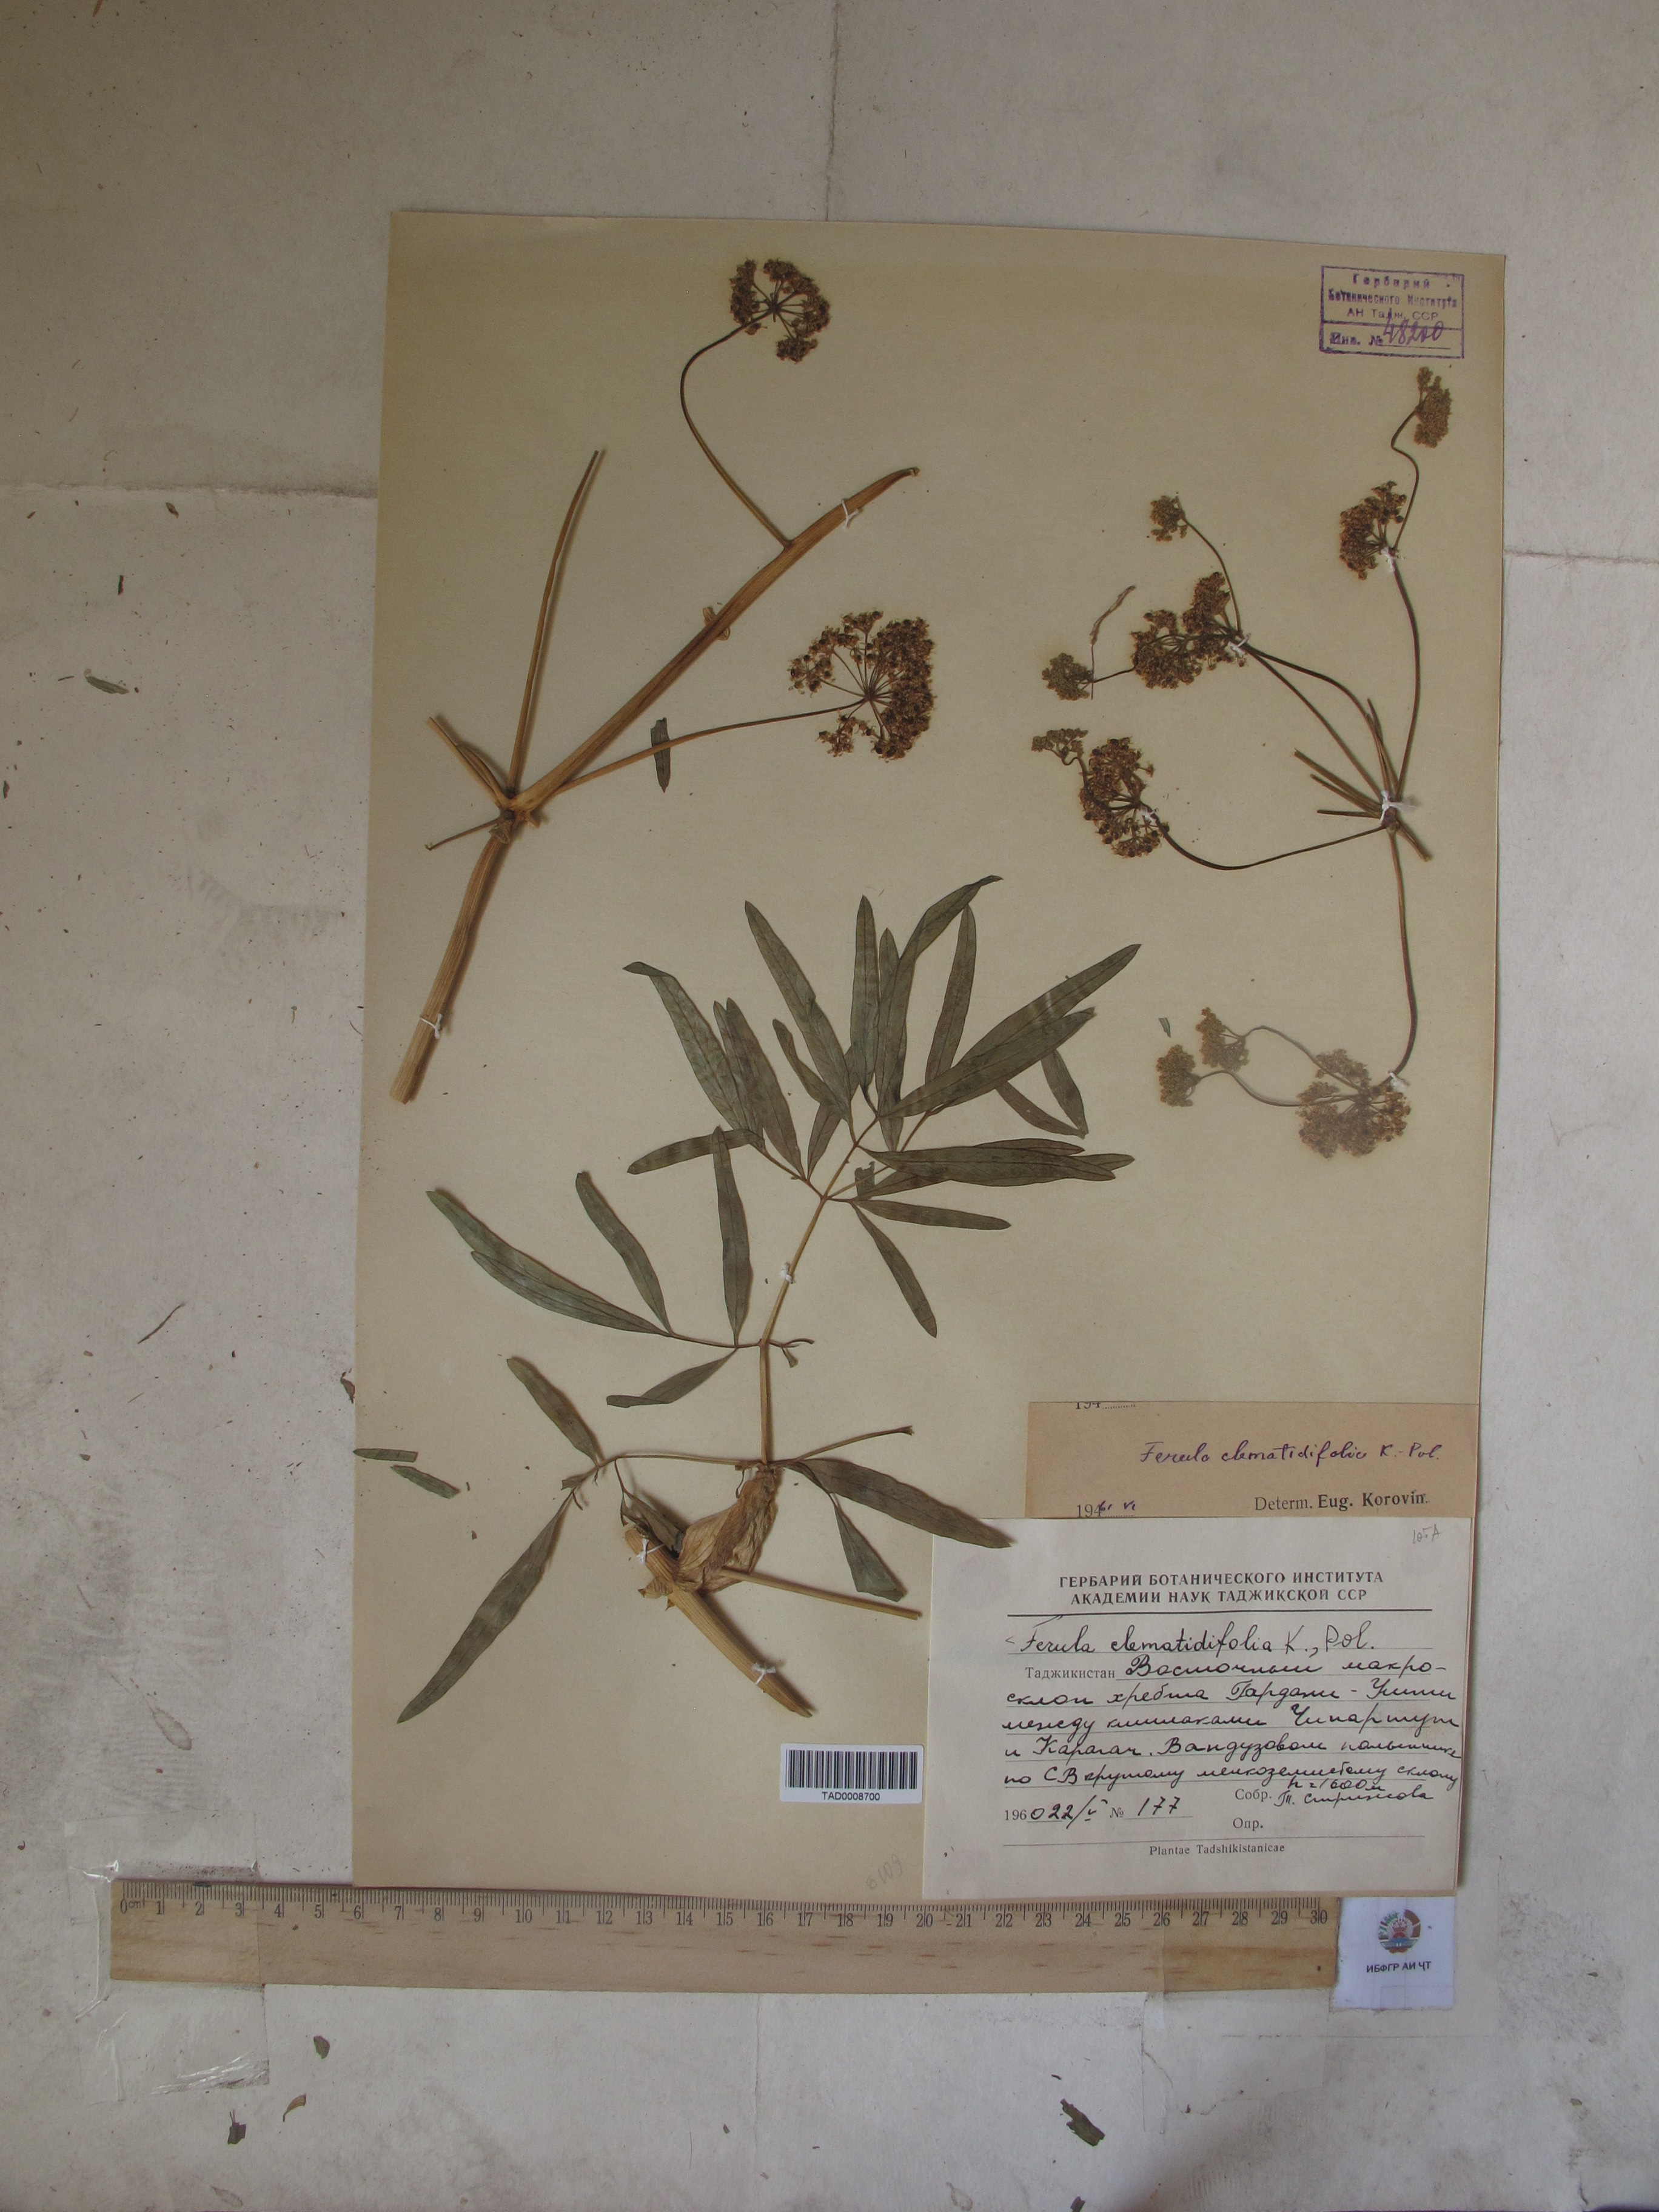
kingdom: Plantae
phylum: Tracheophyta
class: Magnoliopsida
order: Apiales
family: Apiaceae
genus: Ferula
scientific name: Ferula clematidifolia
